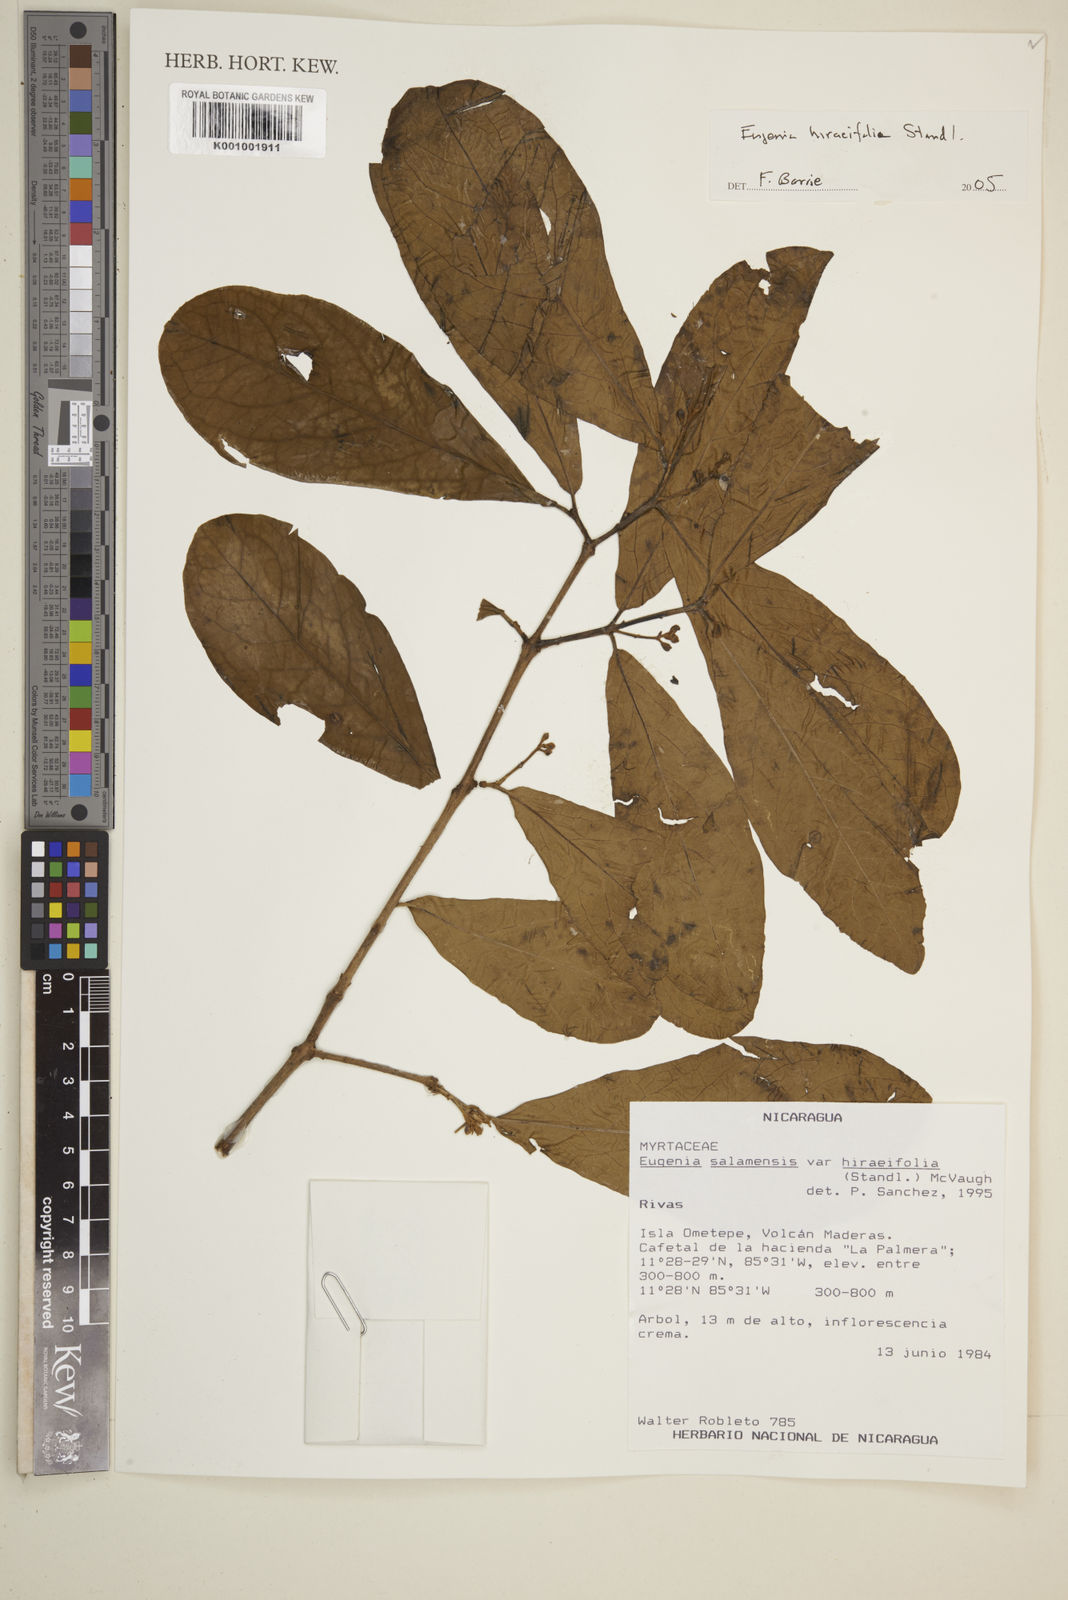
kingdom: Plantae
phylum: Tracheophyta
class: Magnoliopsida
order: Myrtales
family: Myrtaceae
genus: Eugenia
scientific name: Eugenia hiraeifolia
